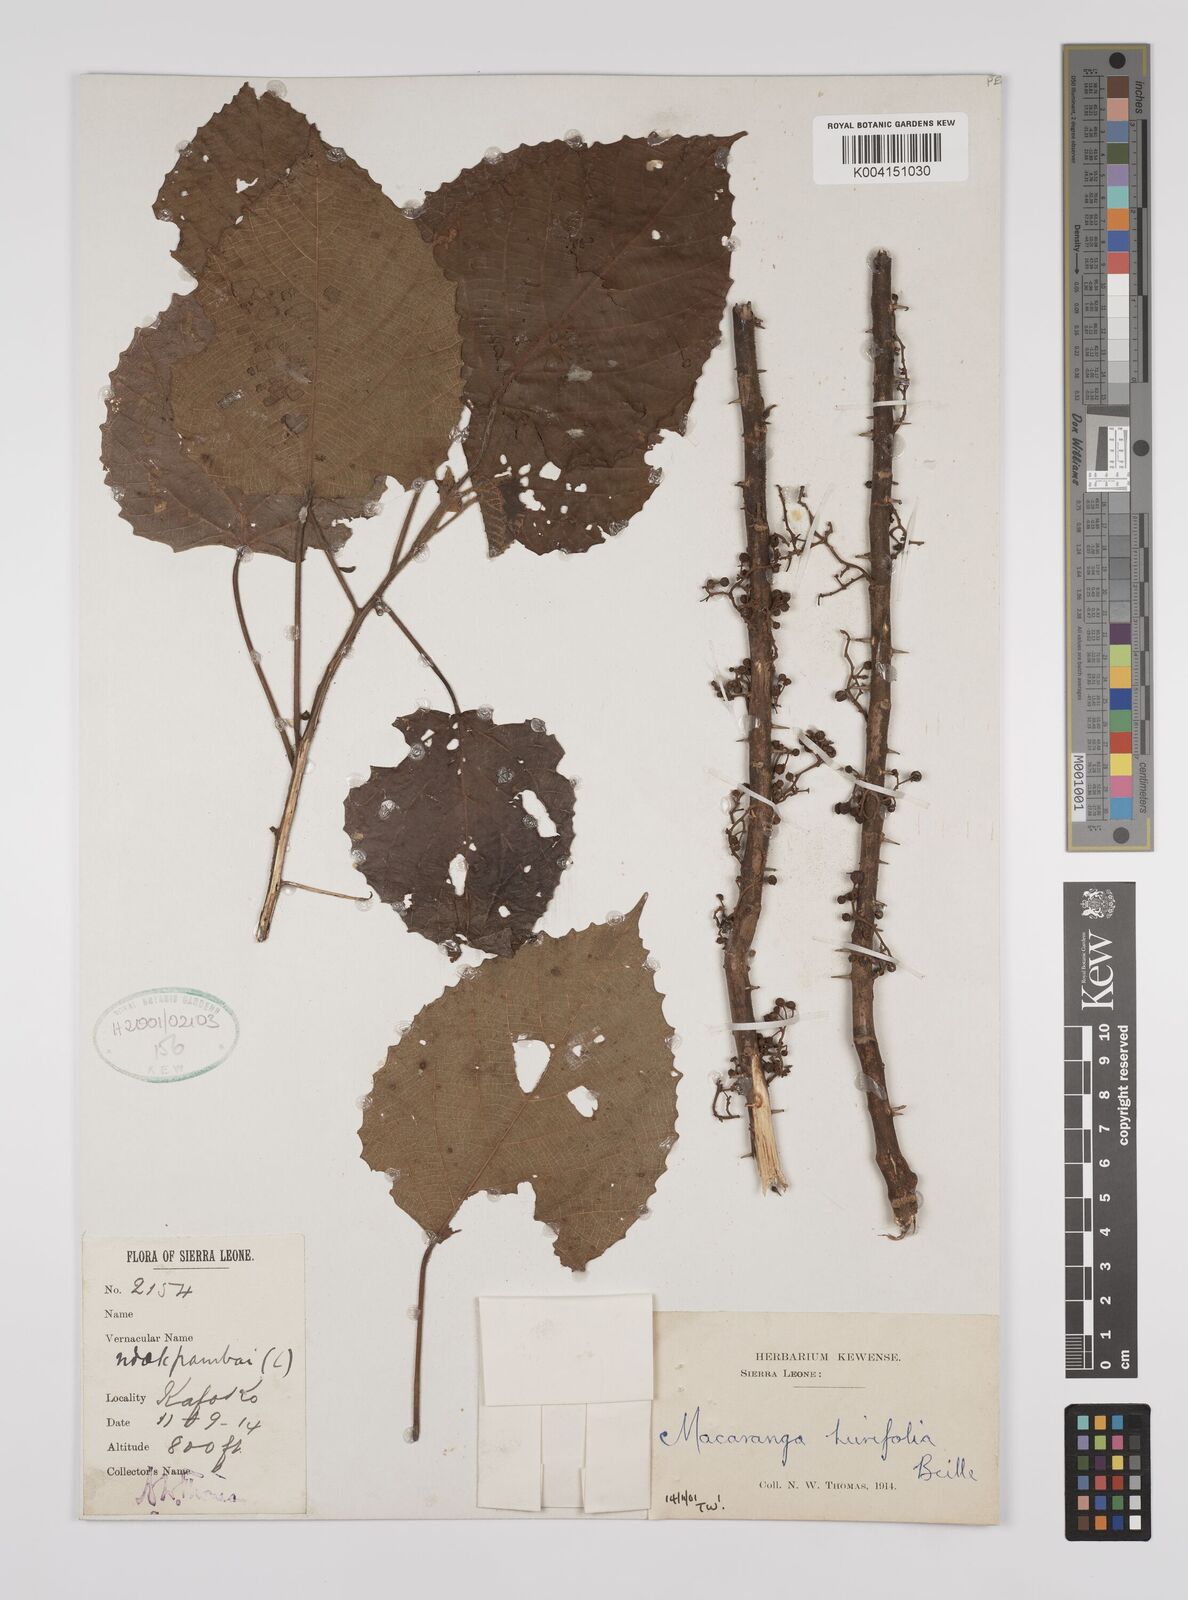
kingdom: Plantae
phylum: Tracheophyta
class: Magnoliopsida
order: Malpighiales
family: Euphorbiaceae
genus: Macaranga
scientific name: Macaranga hurifolia
